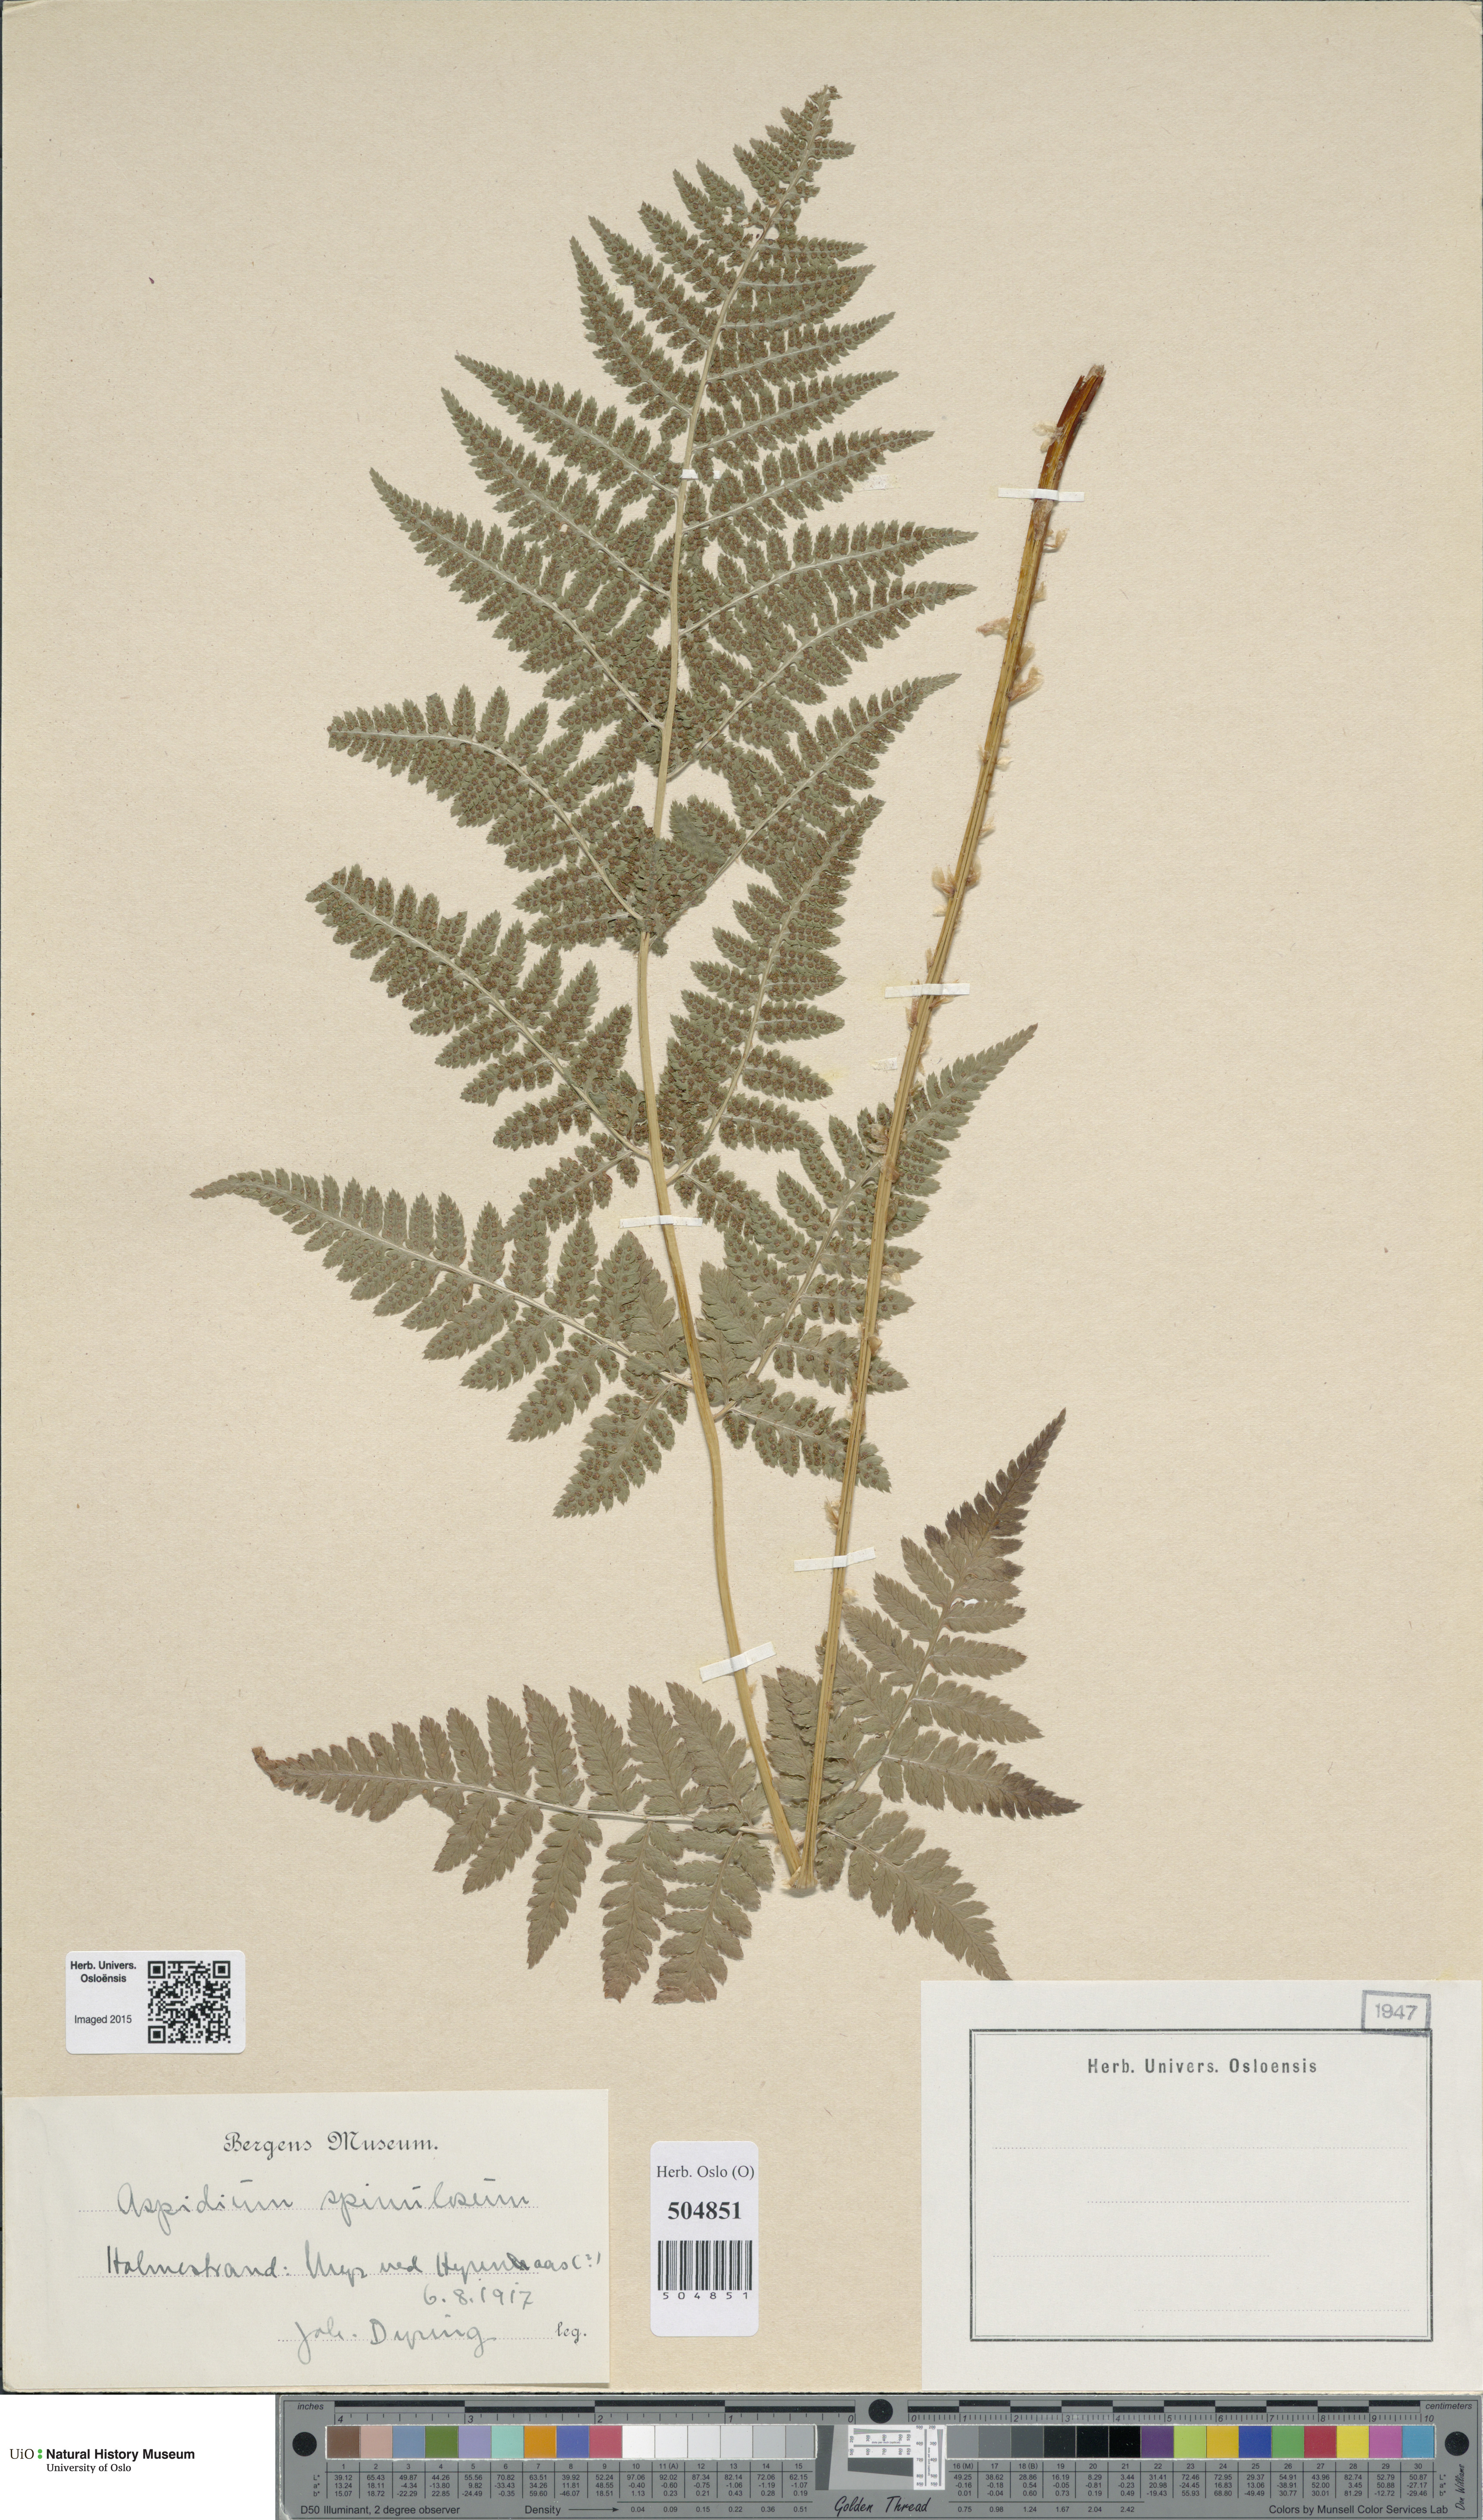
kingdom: Plantae
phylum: Tracheophyta
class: Polypodiopsida
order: Polypodiales
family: Dryopteridaceae
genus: Dryopteris
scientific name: Dryopteris carthusiana
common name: Narrow buckler-fern
